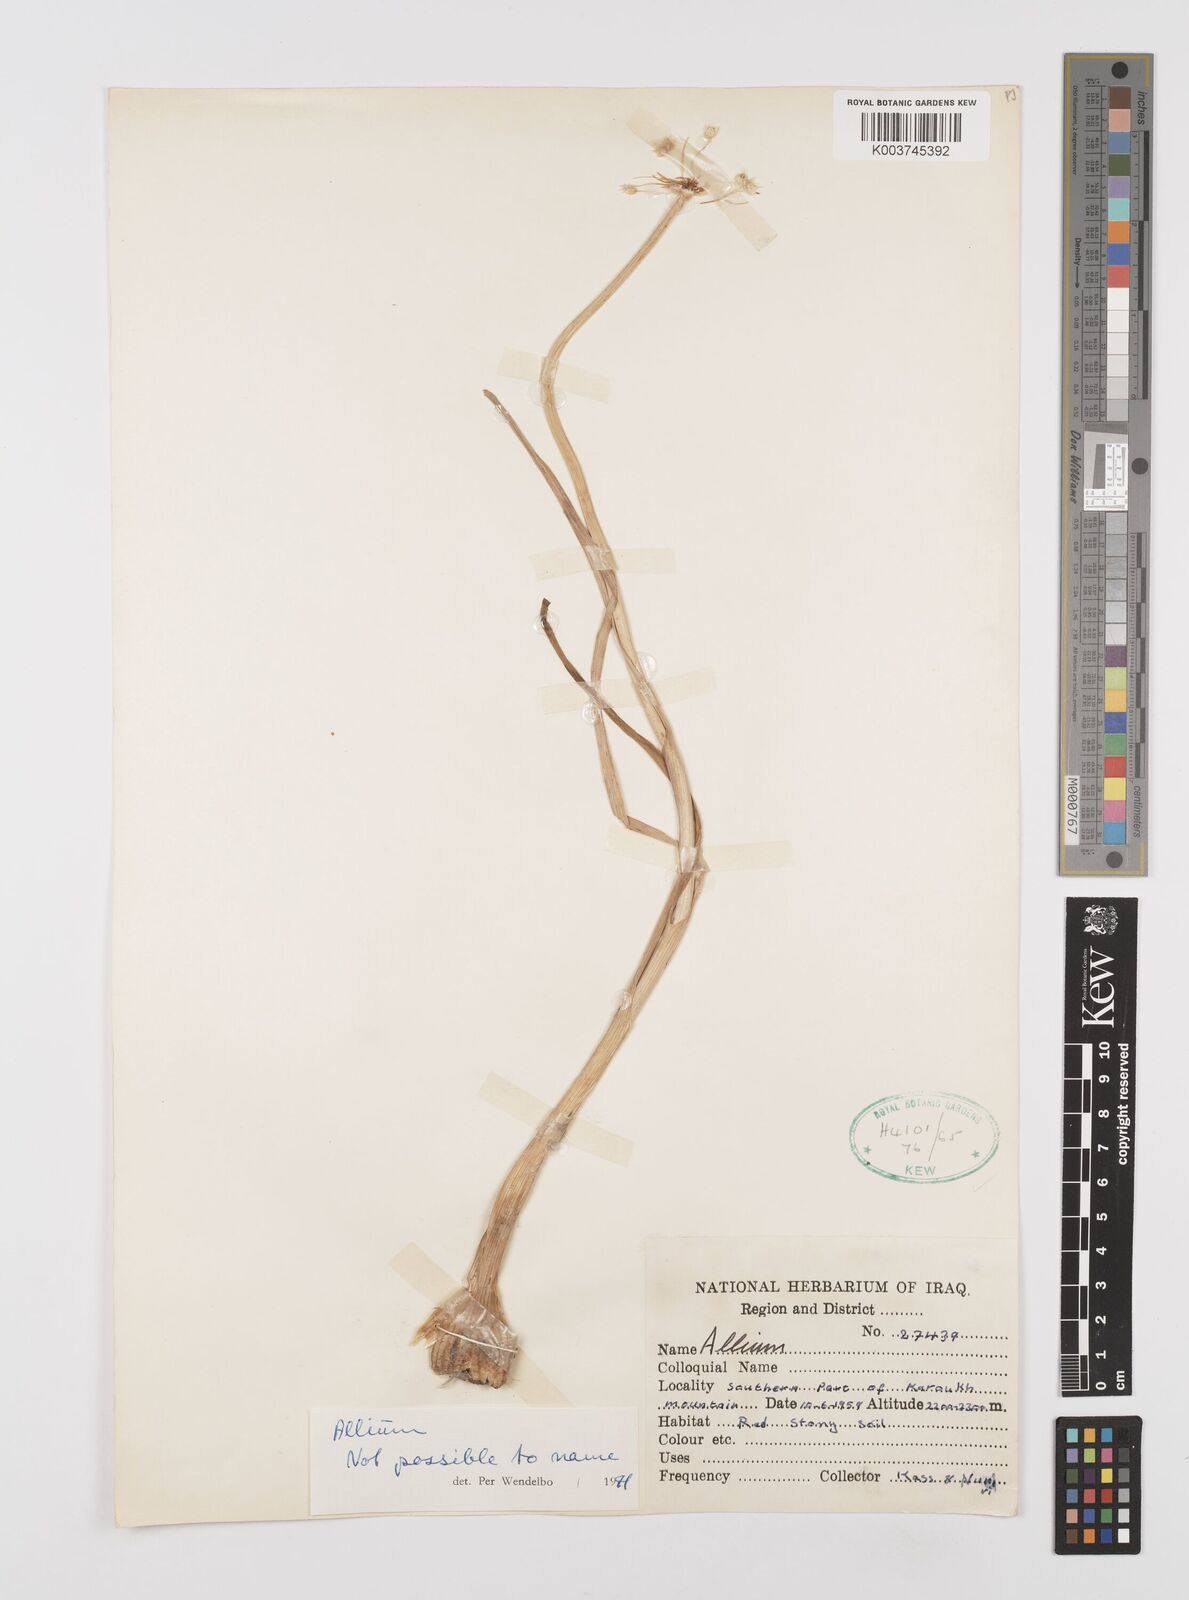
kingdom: Plantae
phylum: Tracheophyta
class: Liliopsida
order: Asparagales
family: Amaryllidaceae
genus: Allium
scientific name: Allium
